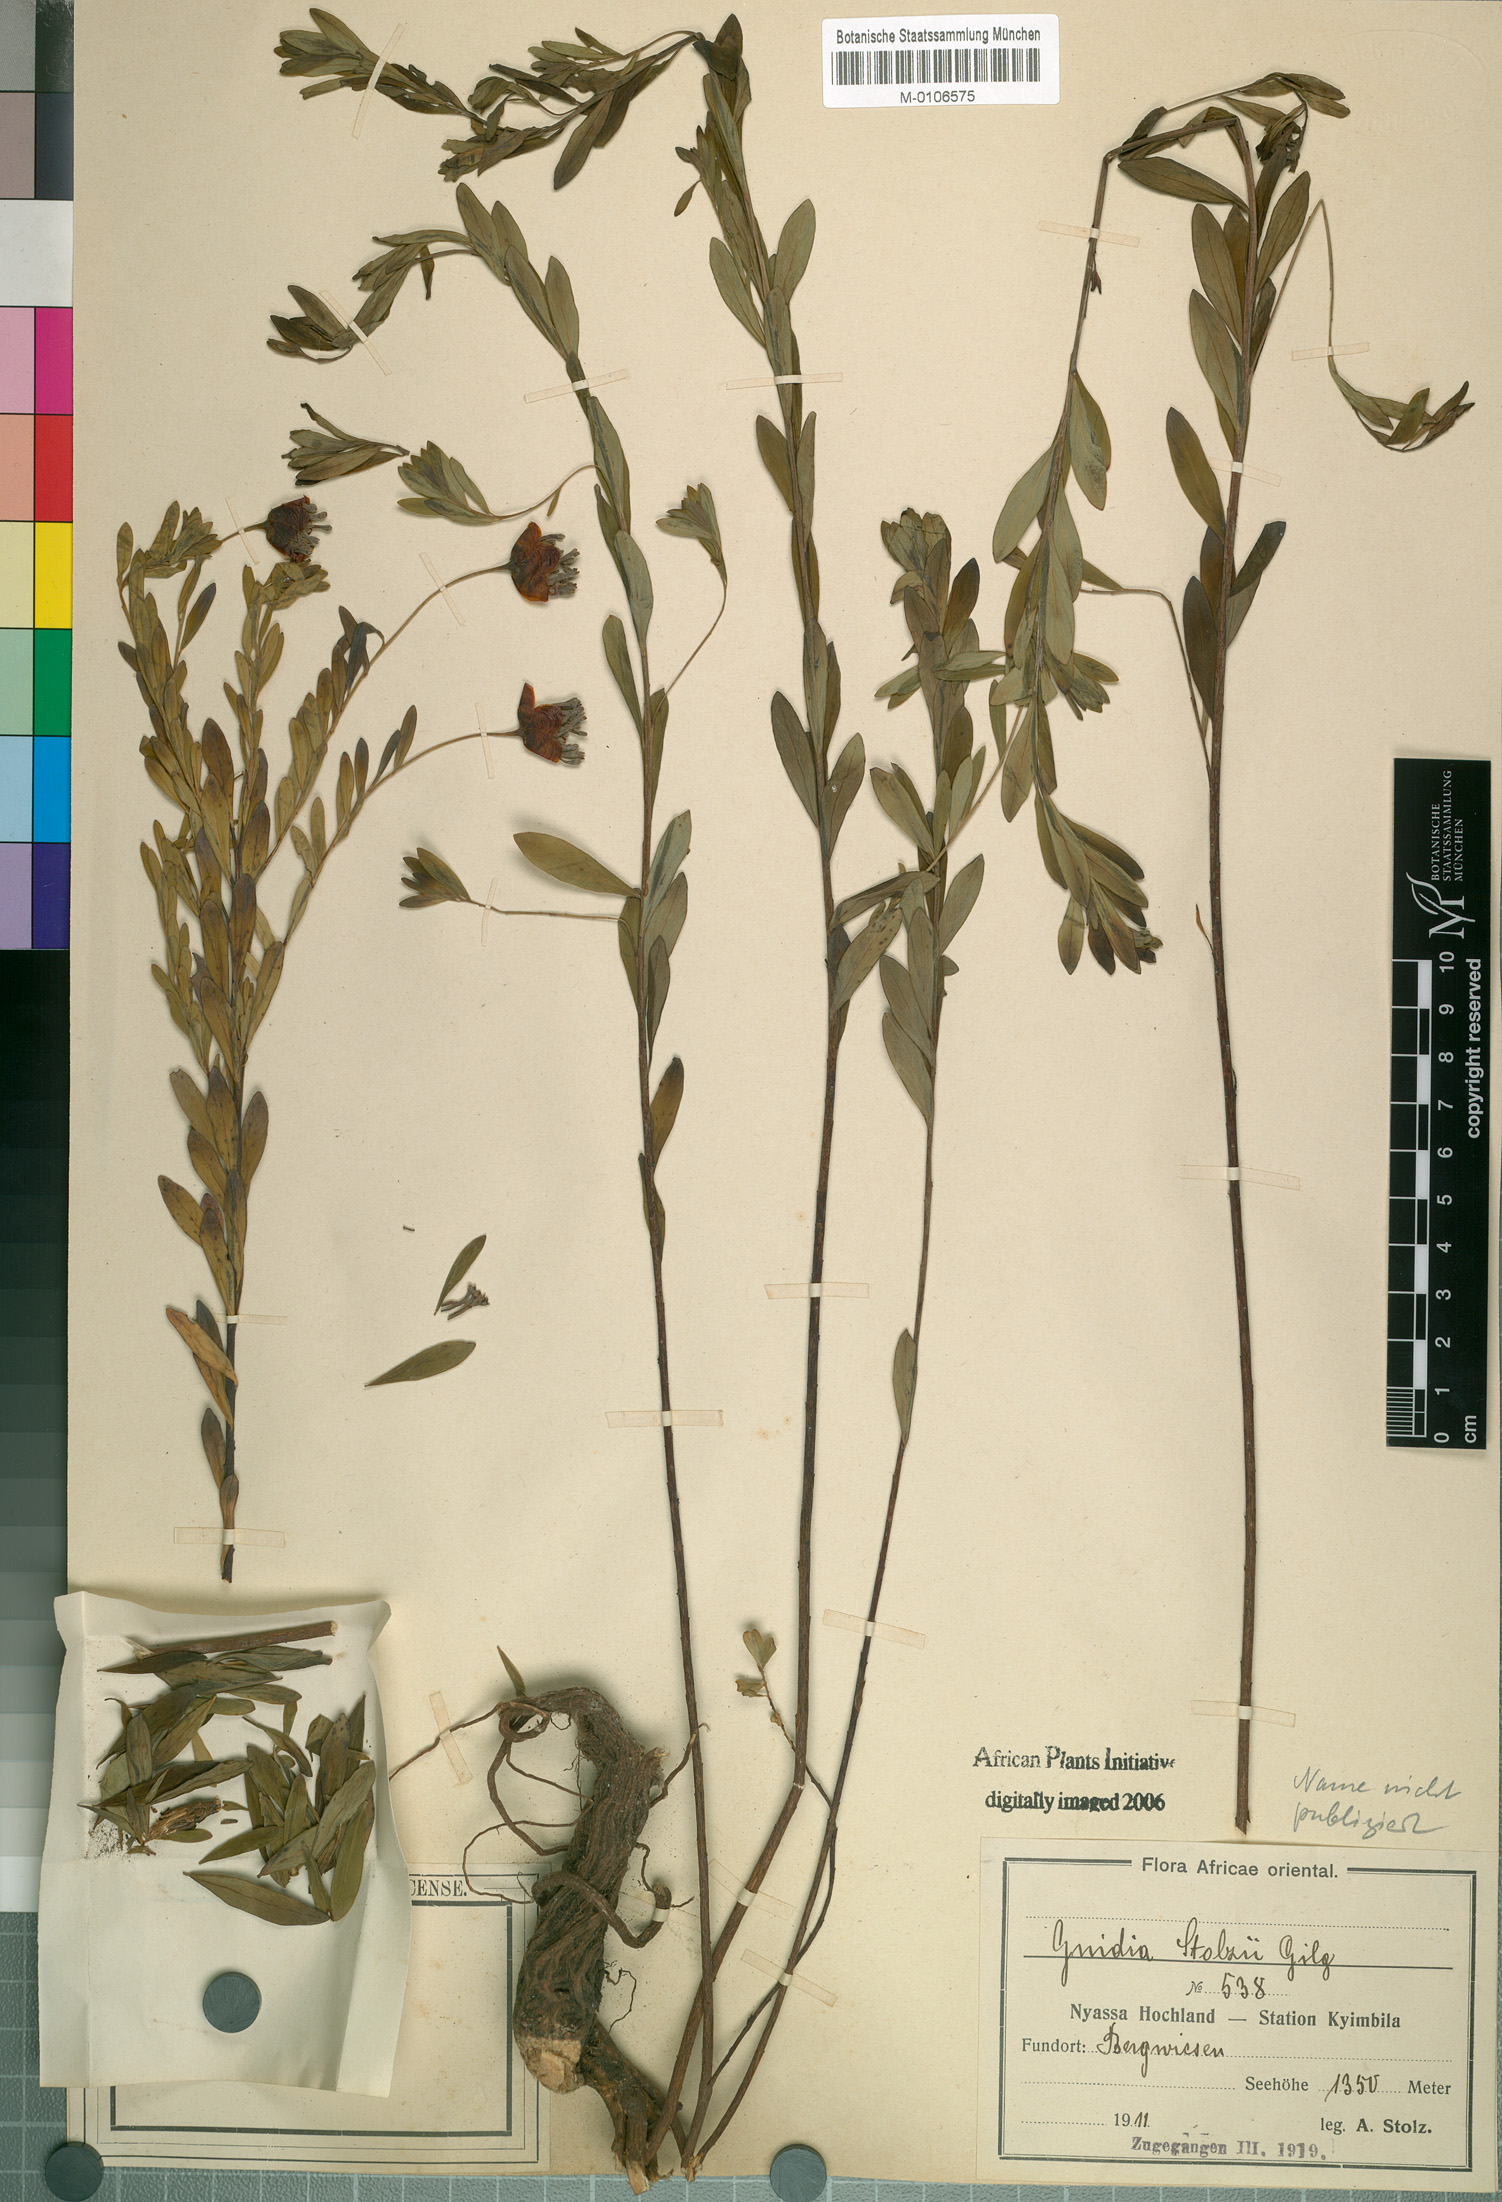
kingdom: Plantae
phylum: Tracheophyta
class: Magnoliopsida
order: Malvales
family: Thymelaeaceae
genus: Gnidia
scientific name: Gnidia
